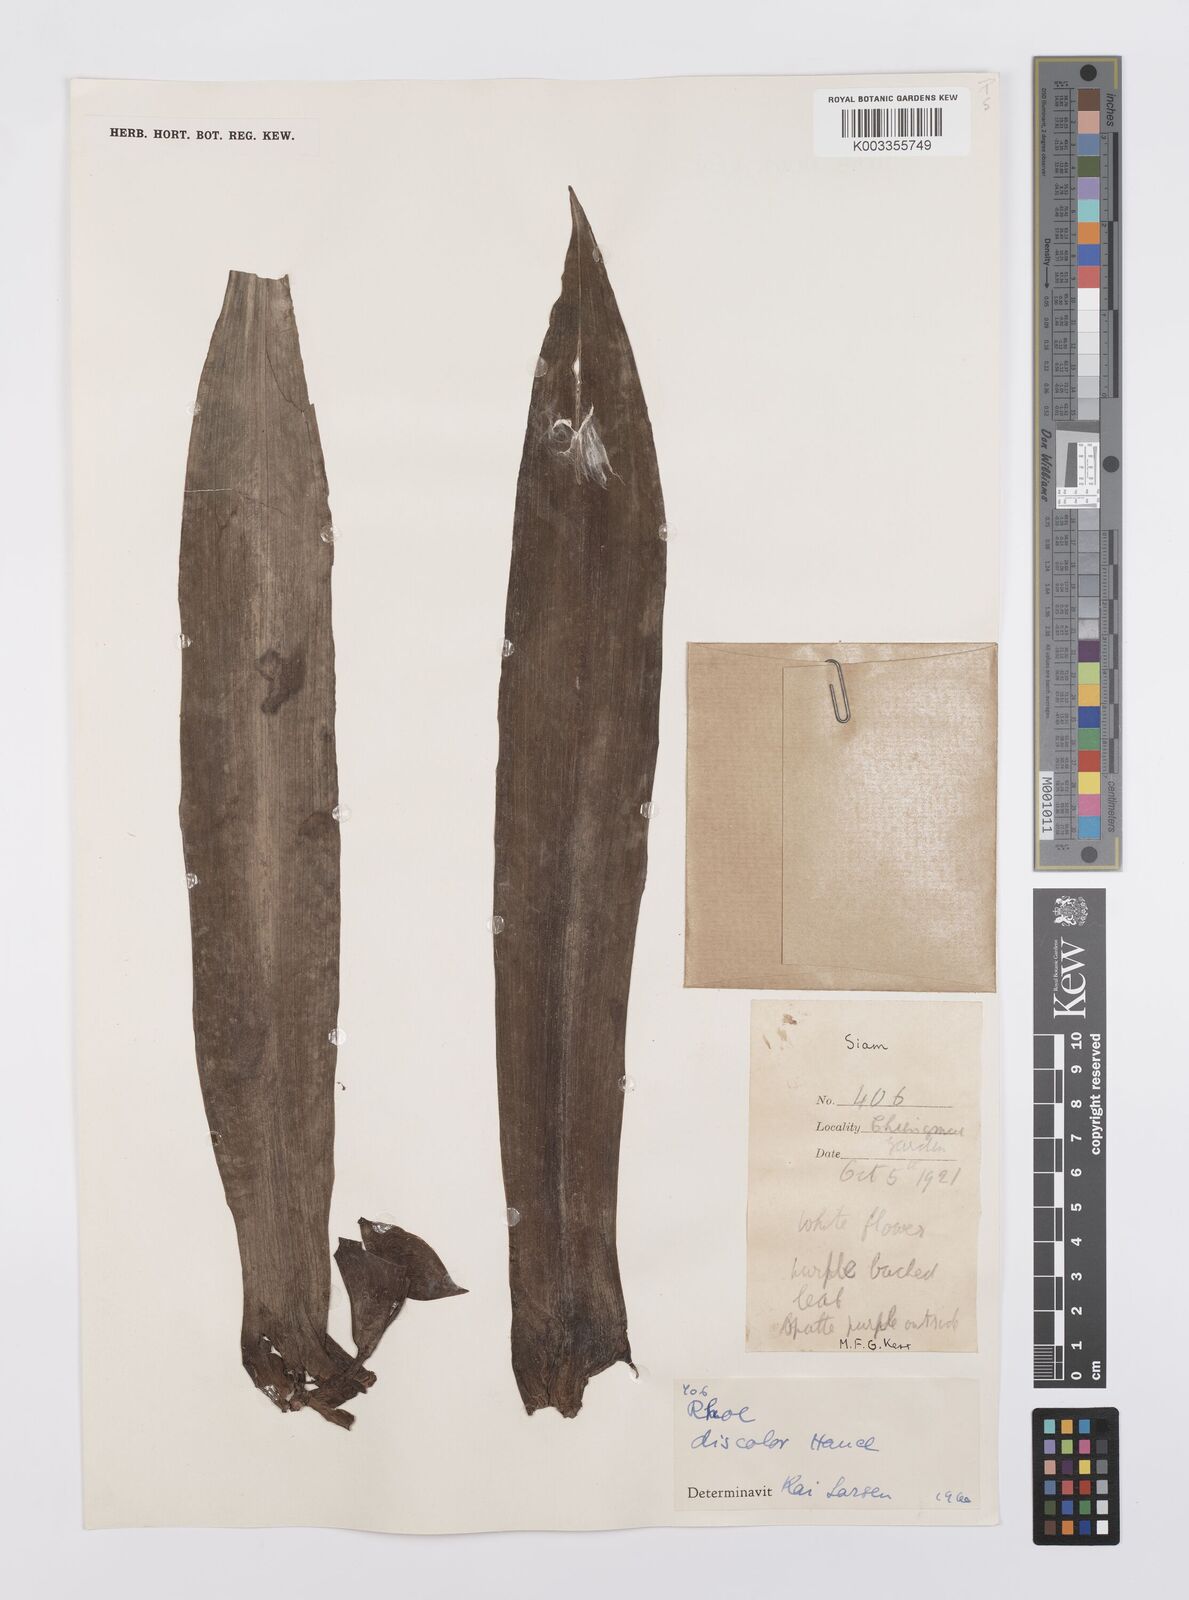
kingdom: Plantae
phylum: Tracheophyta
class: Liliopsida
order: Commelinales
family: Commelinaceae
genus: Tradescantia
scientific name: Tradescantia spathacea
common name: Boatlily
